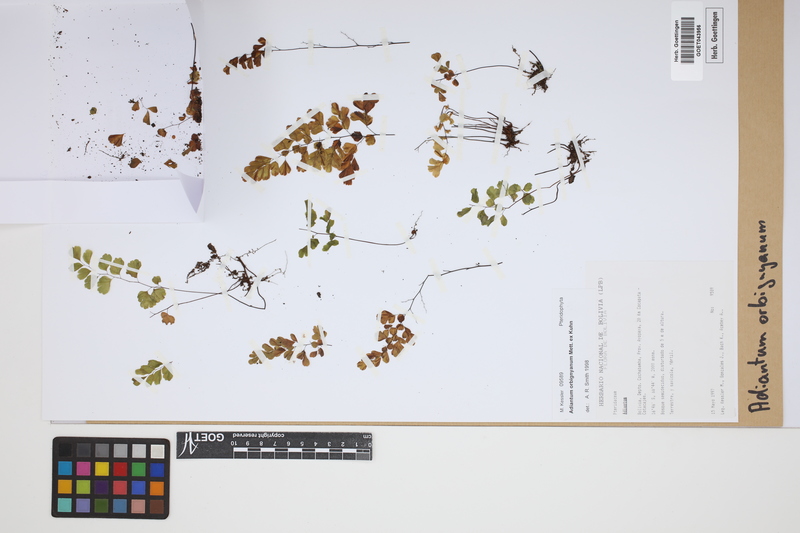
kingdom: Plantae
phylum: Tracheophyta
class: Polypodiopsida
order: Polypodiales
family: Pteridaceae
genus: Adiantum
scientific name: Adiantum orbignyanum
